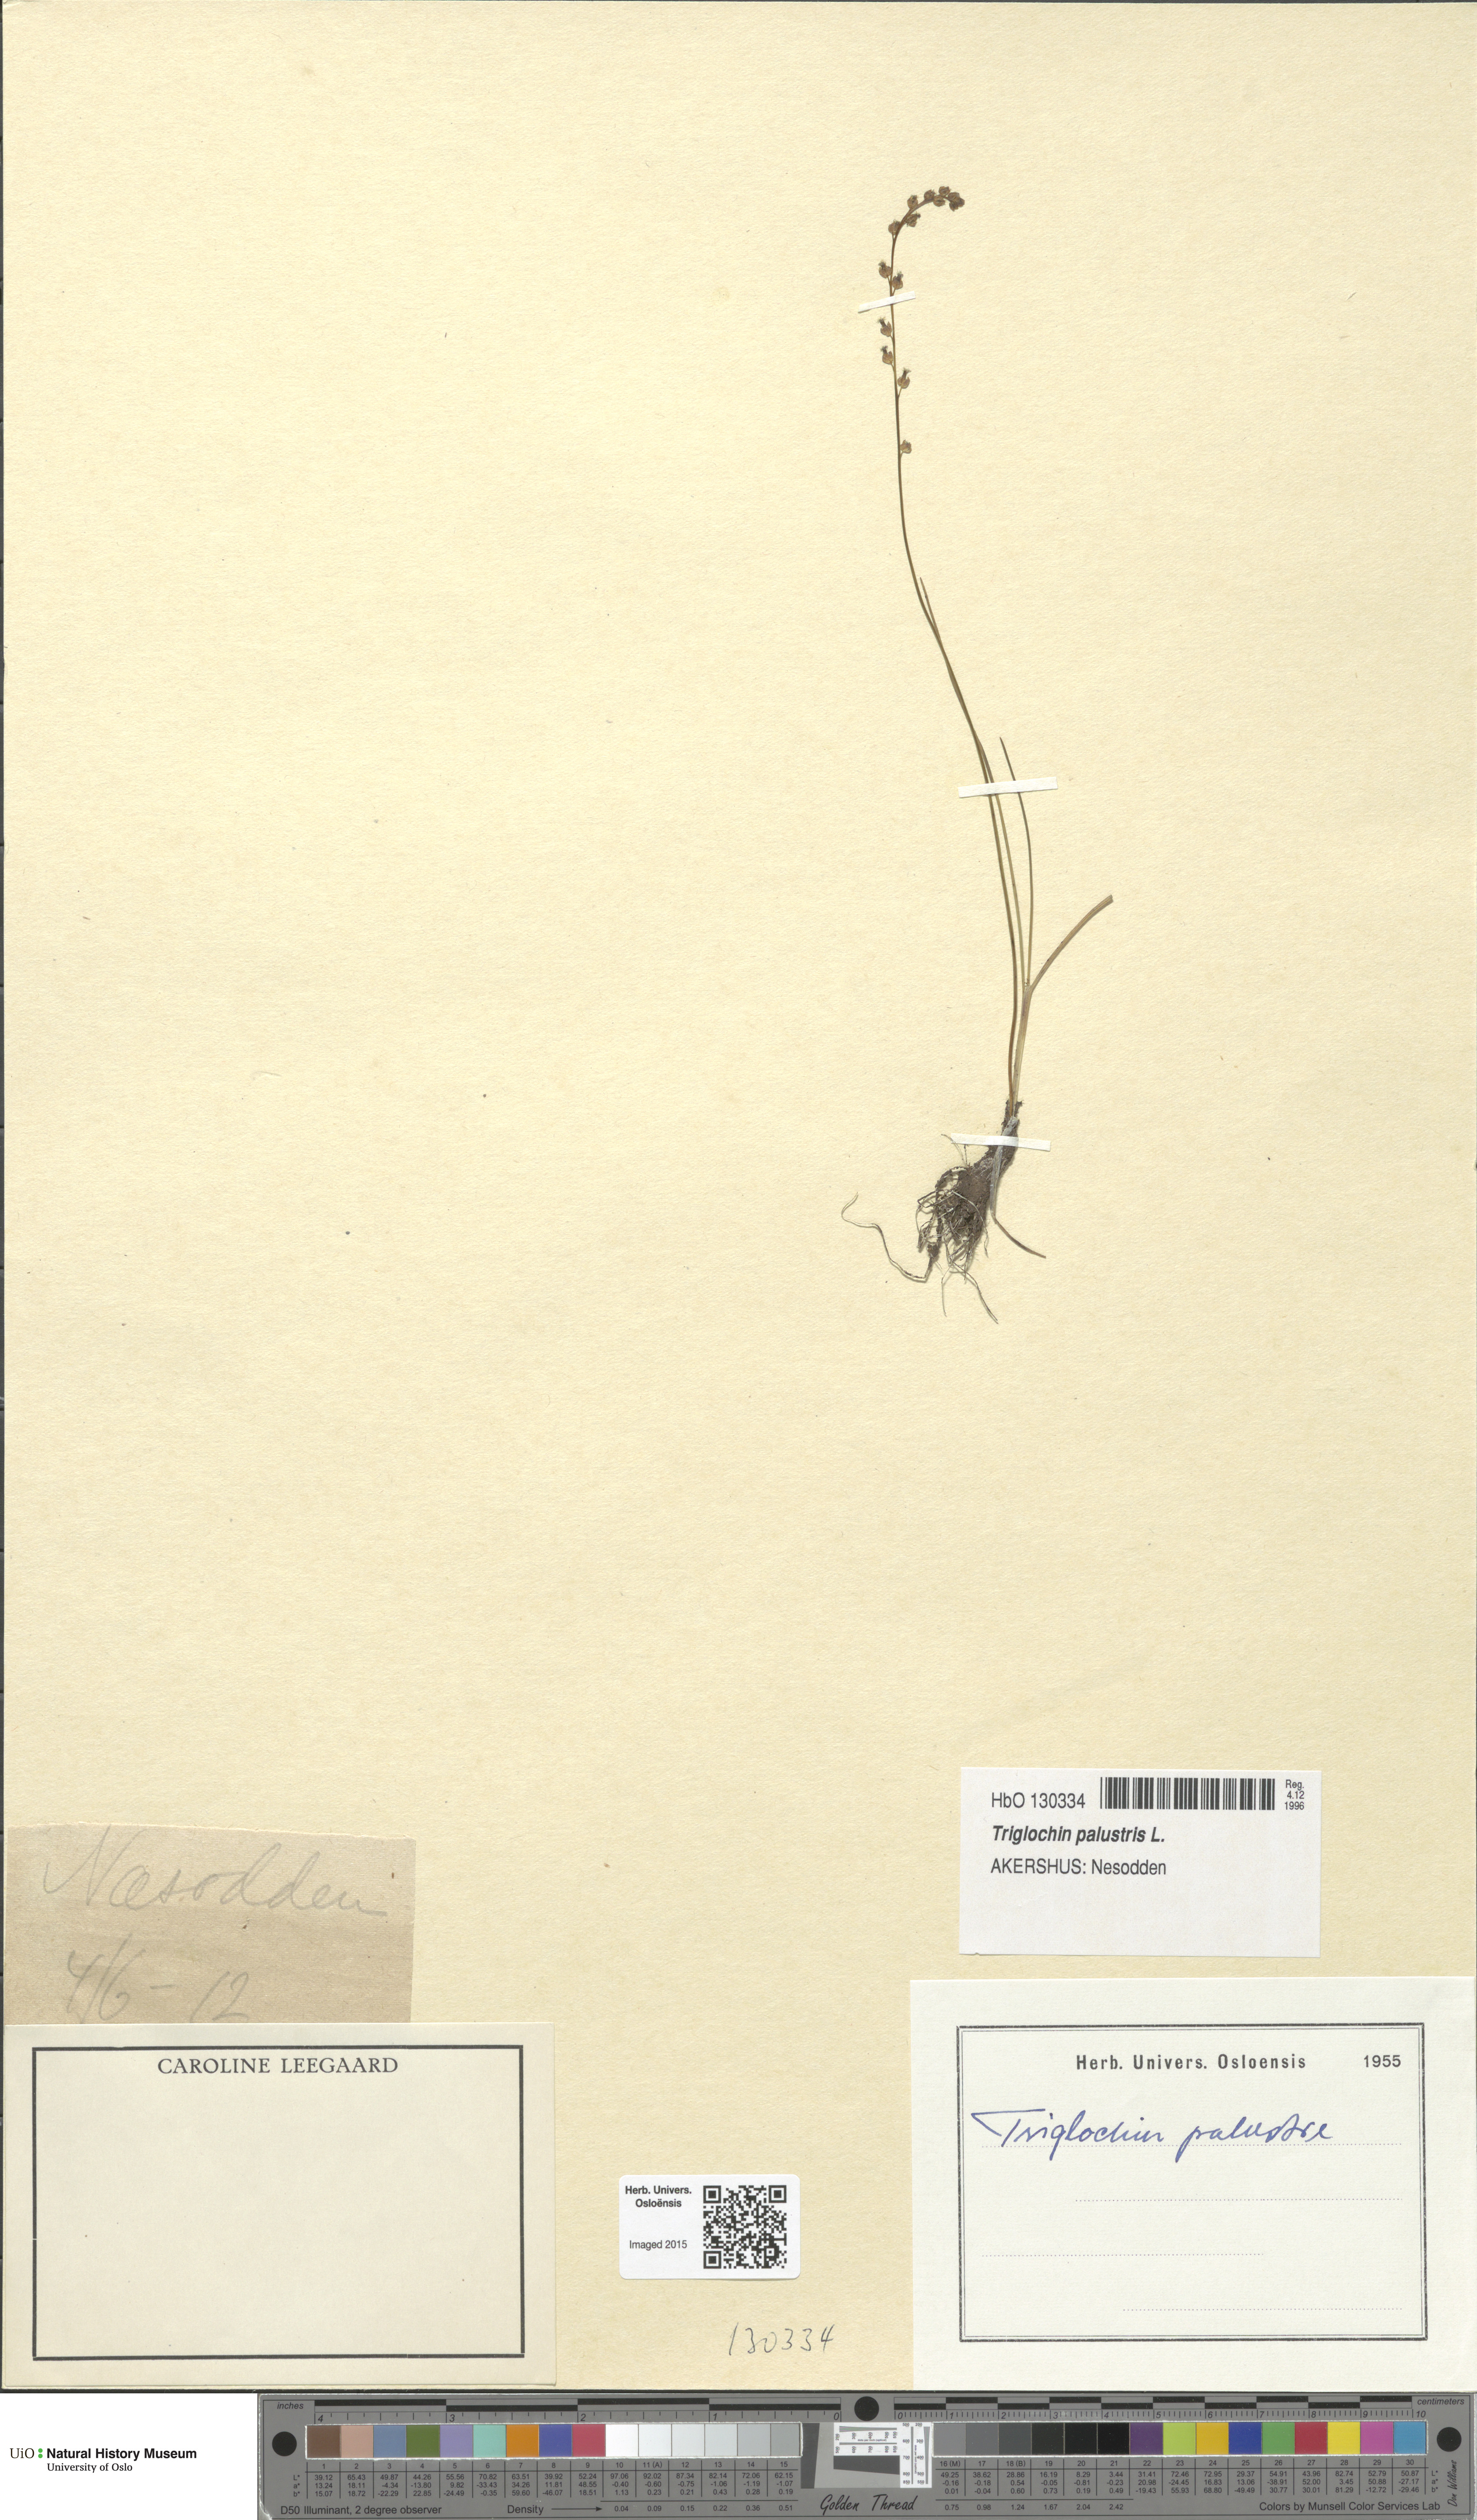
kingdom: Plantae
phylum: Tracheophyta
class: Liliopsida
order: Alismatales
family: Juncaginaceae
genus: Triglochin
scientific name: Triglochin palustris
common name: Marsh arrowgrass
